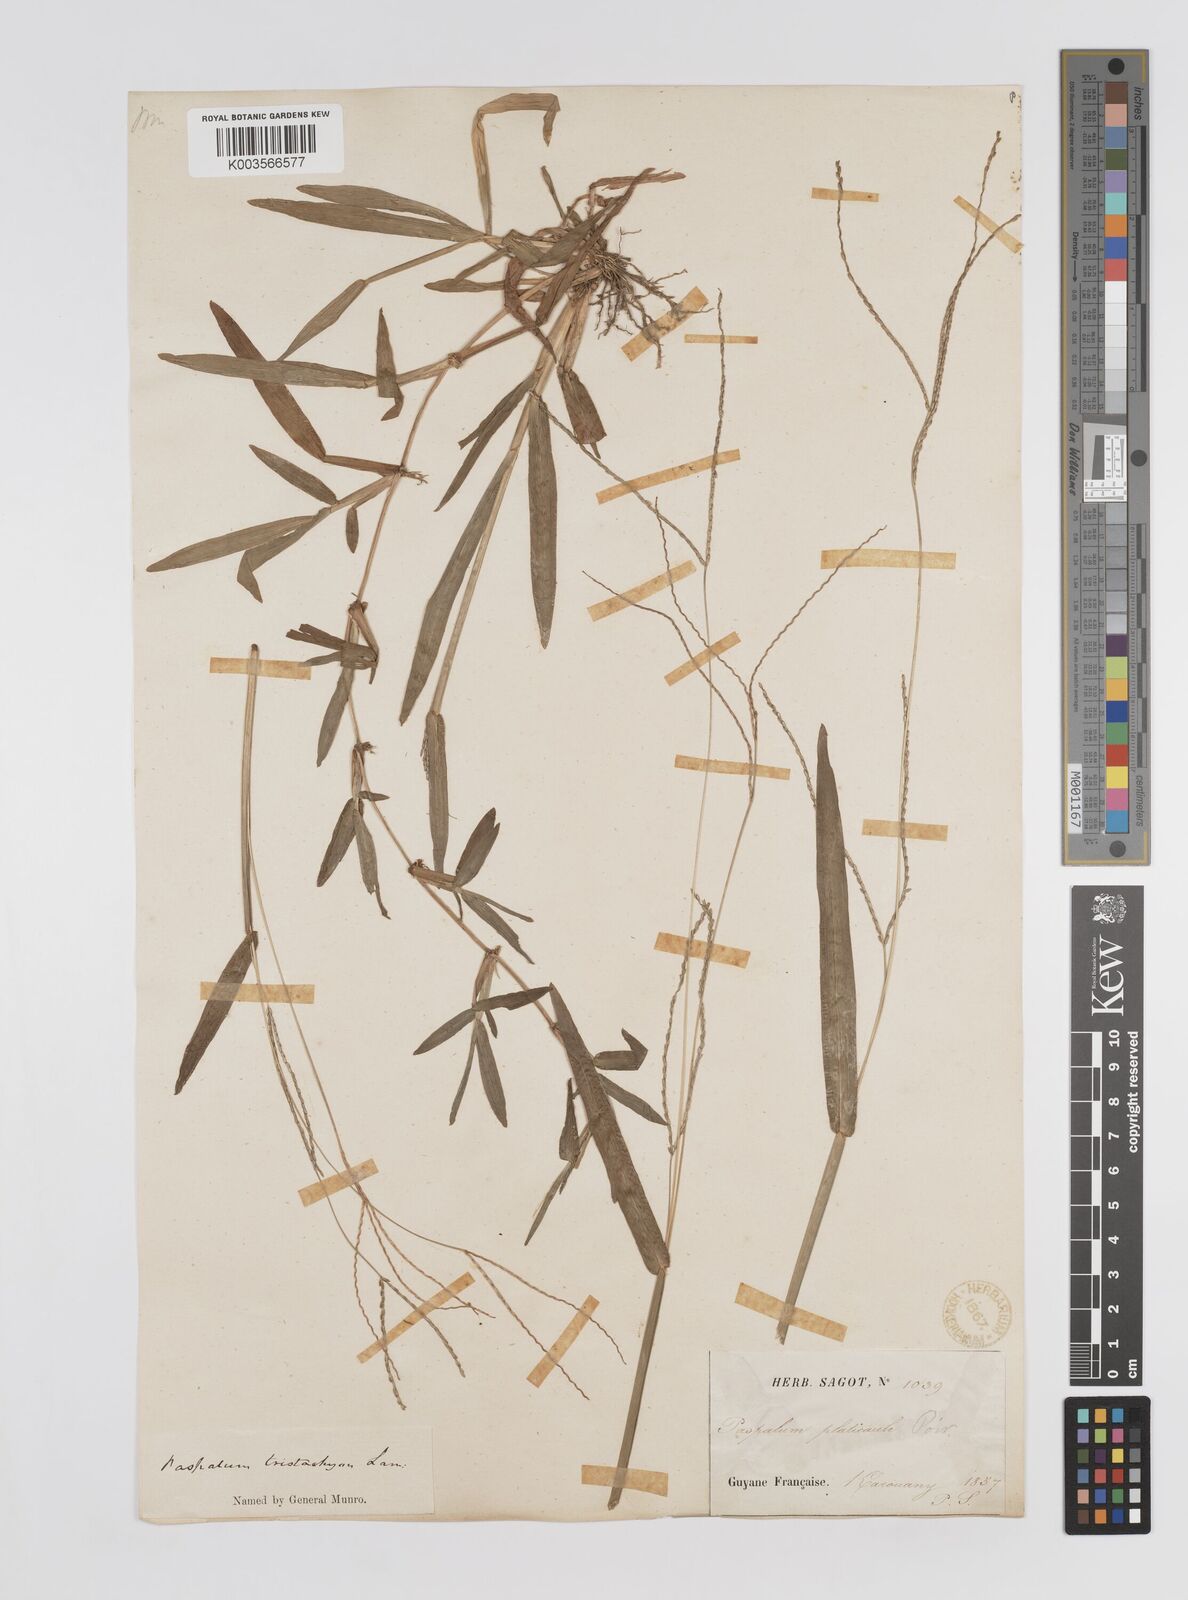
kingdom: Plantae
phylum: Tracheophyta
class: Liliopsida
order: Poales
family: Poaceae
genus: Axonopus
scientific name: Axonopus compressus
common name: American carpet grass
